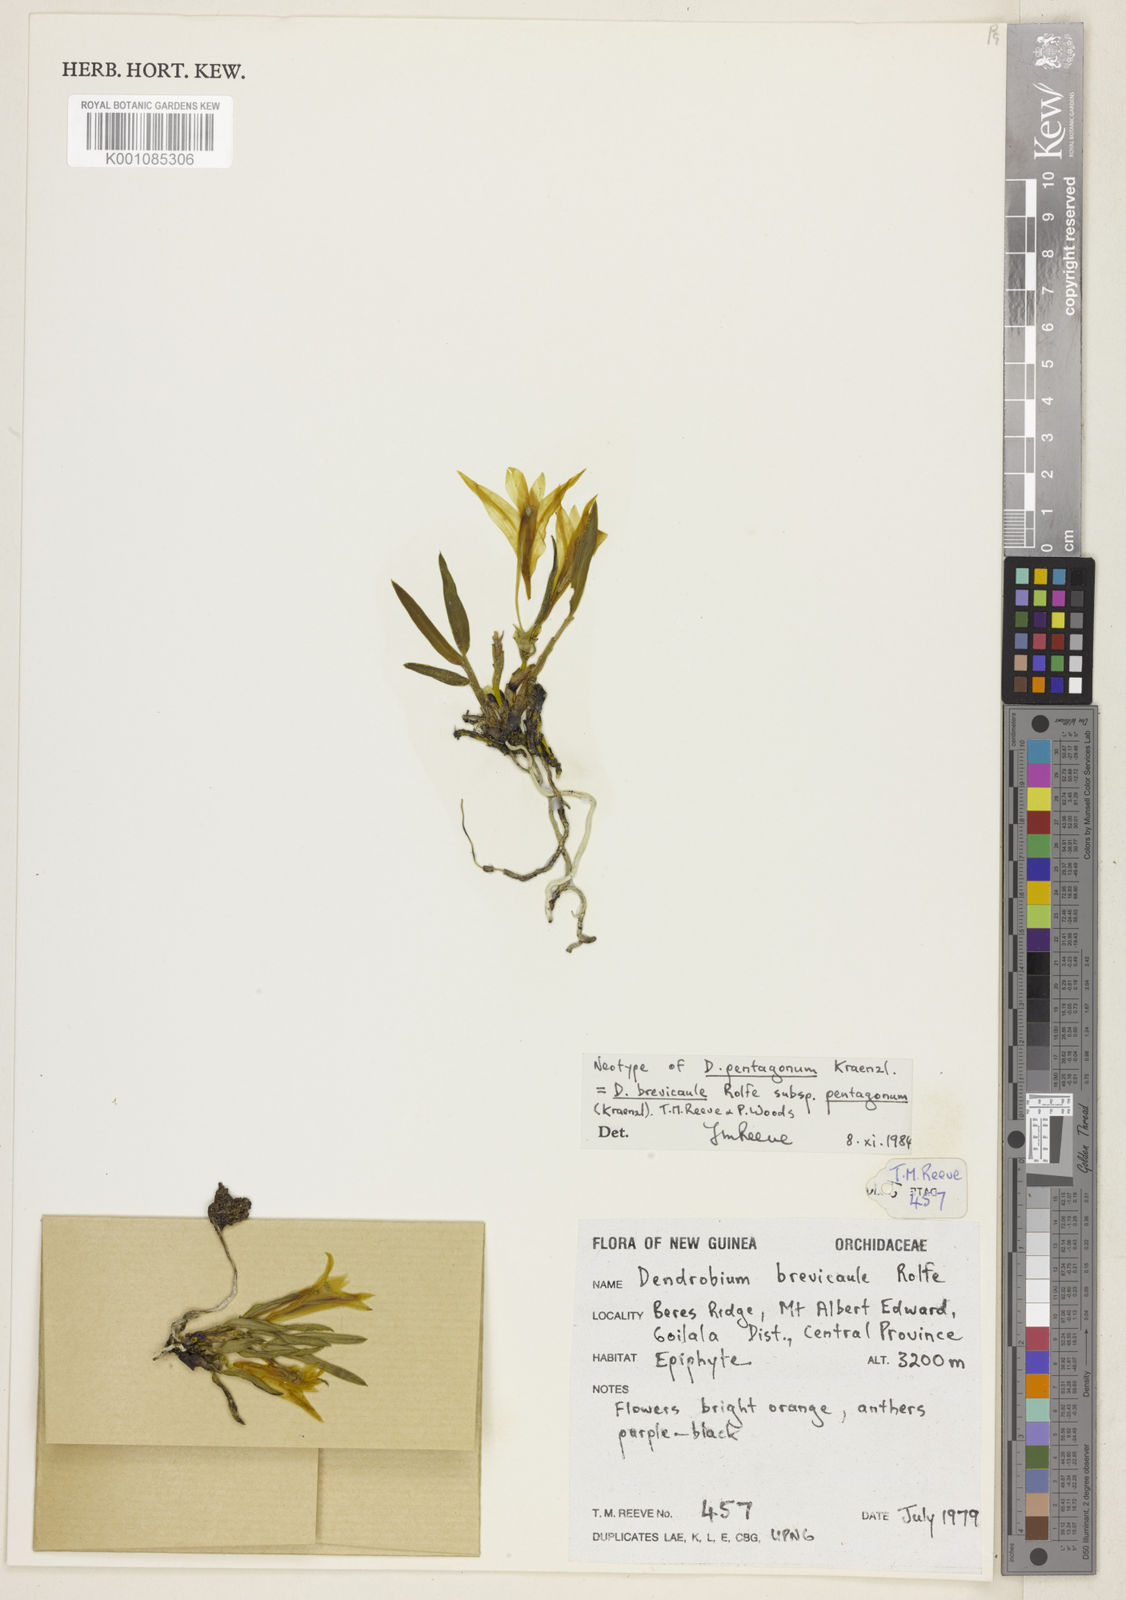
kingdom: Plantae
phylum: Tracheophyta
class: Liliopsida
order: Asparagales
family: Orchidaceae
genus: Dendrobium
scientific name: Dendrobium brevicaule
